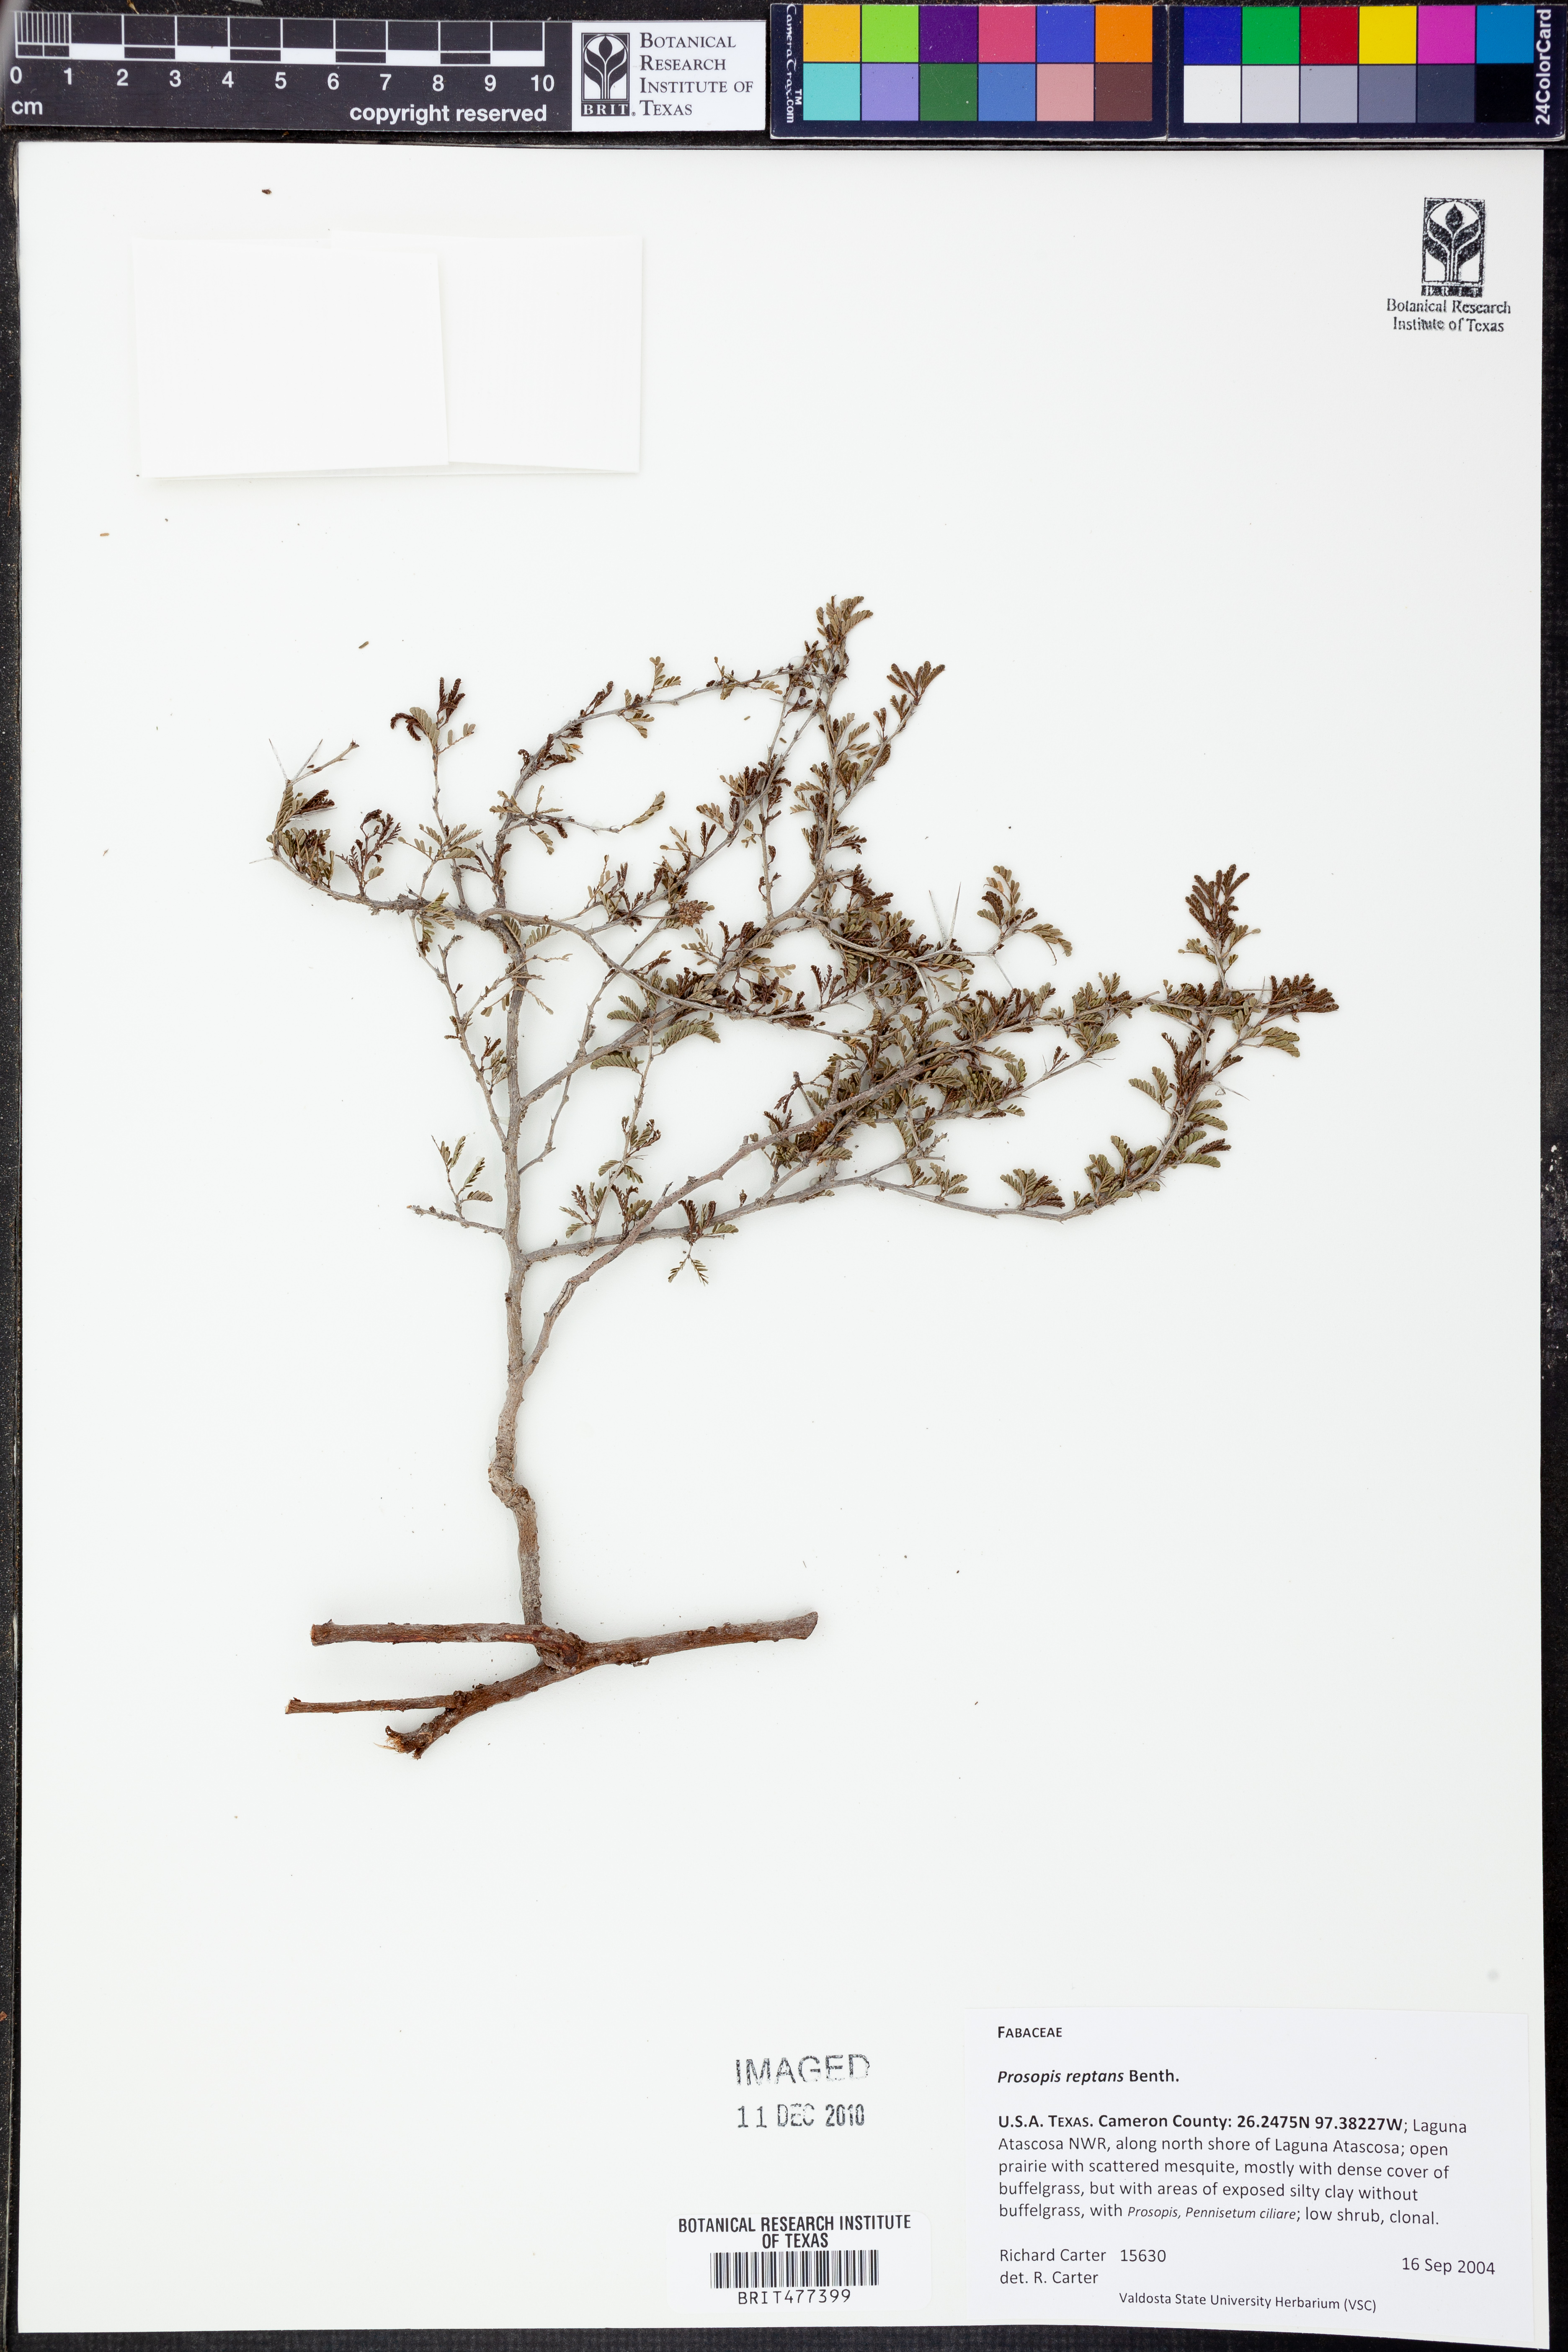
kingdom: Plantae
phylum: Tracheophyta
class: Magnoliopsida
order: Fabales
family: Fabaceae
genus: Prosopis
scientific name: Prosopis reptans
